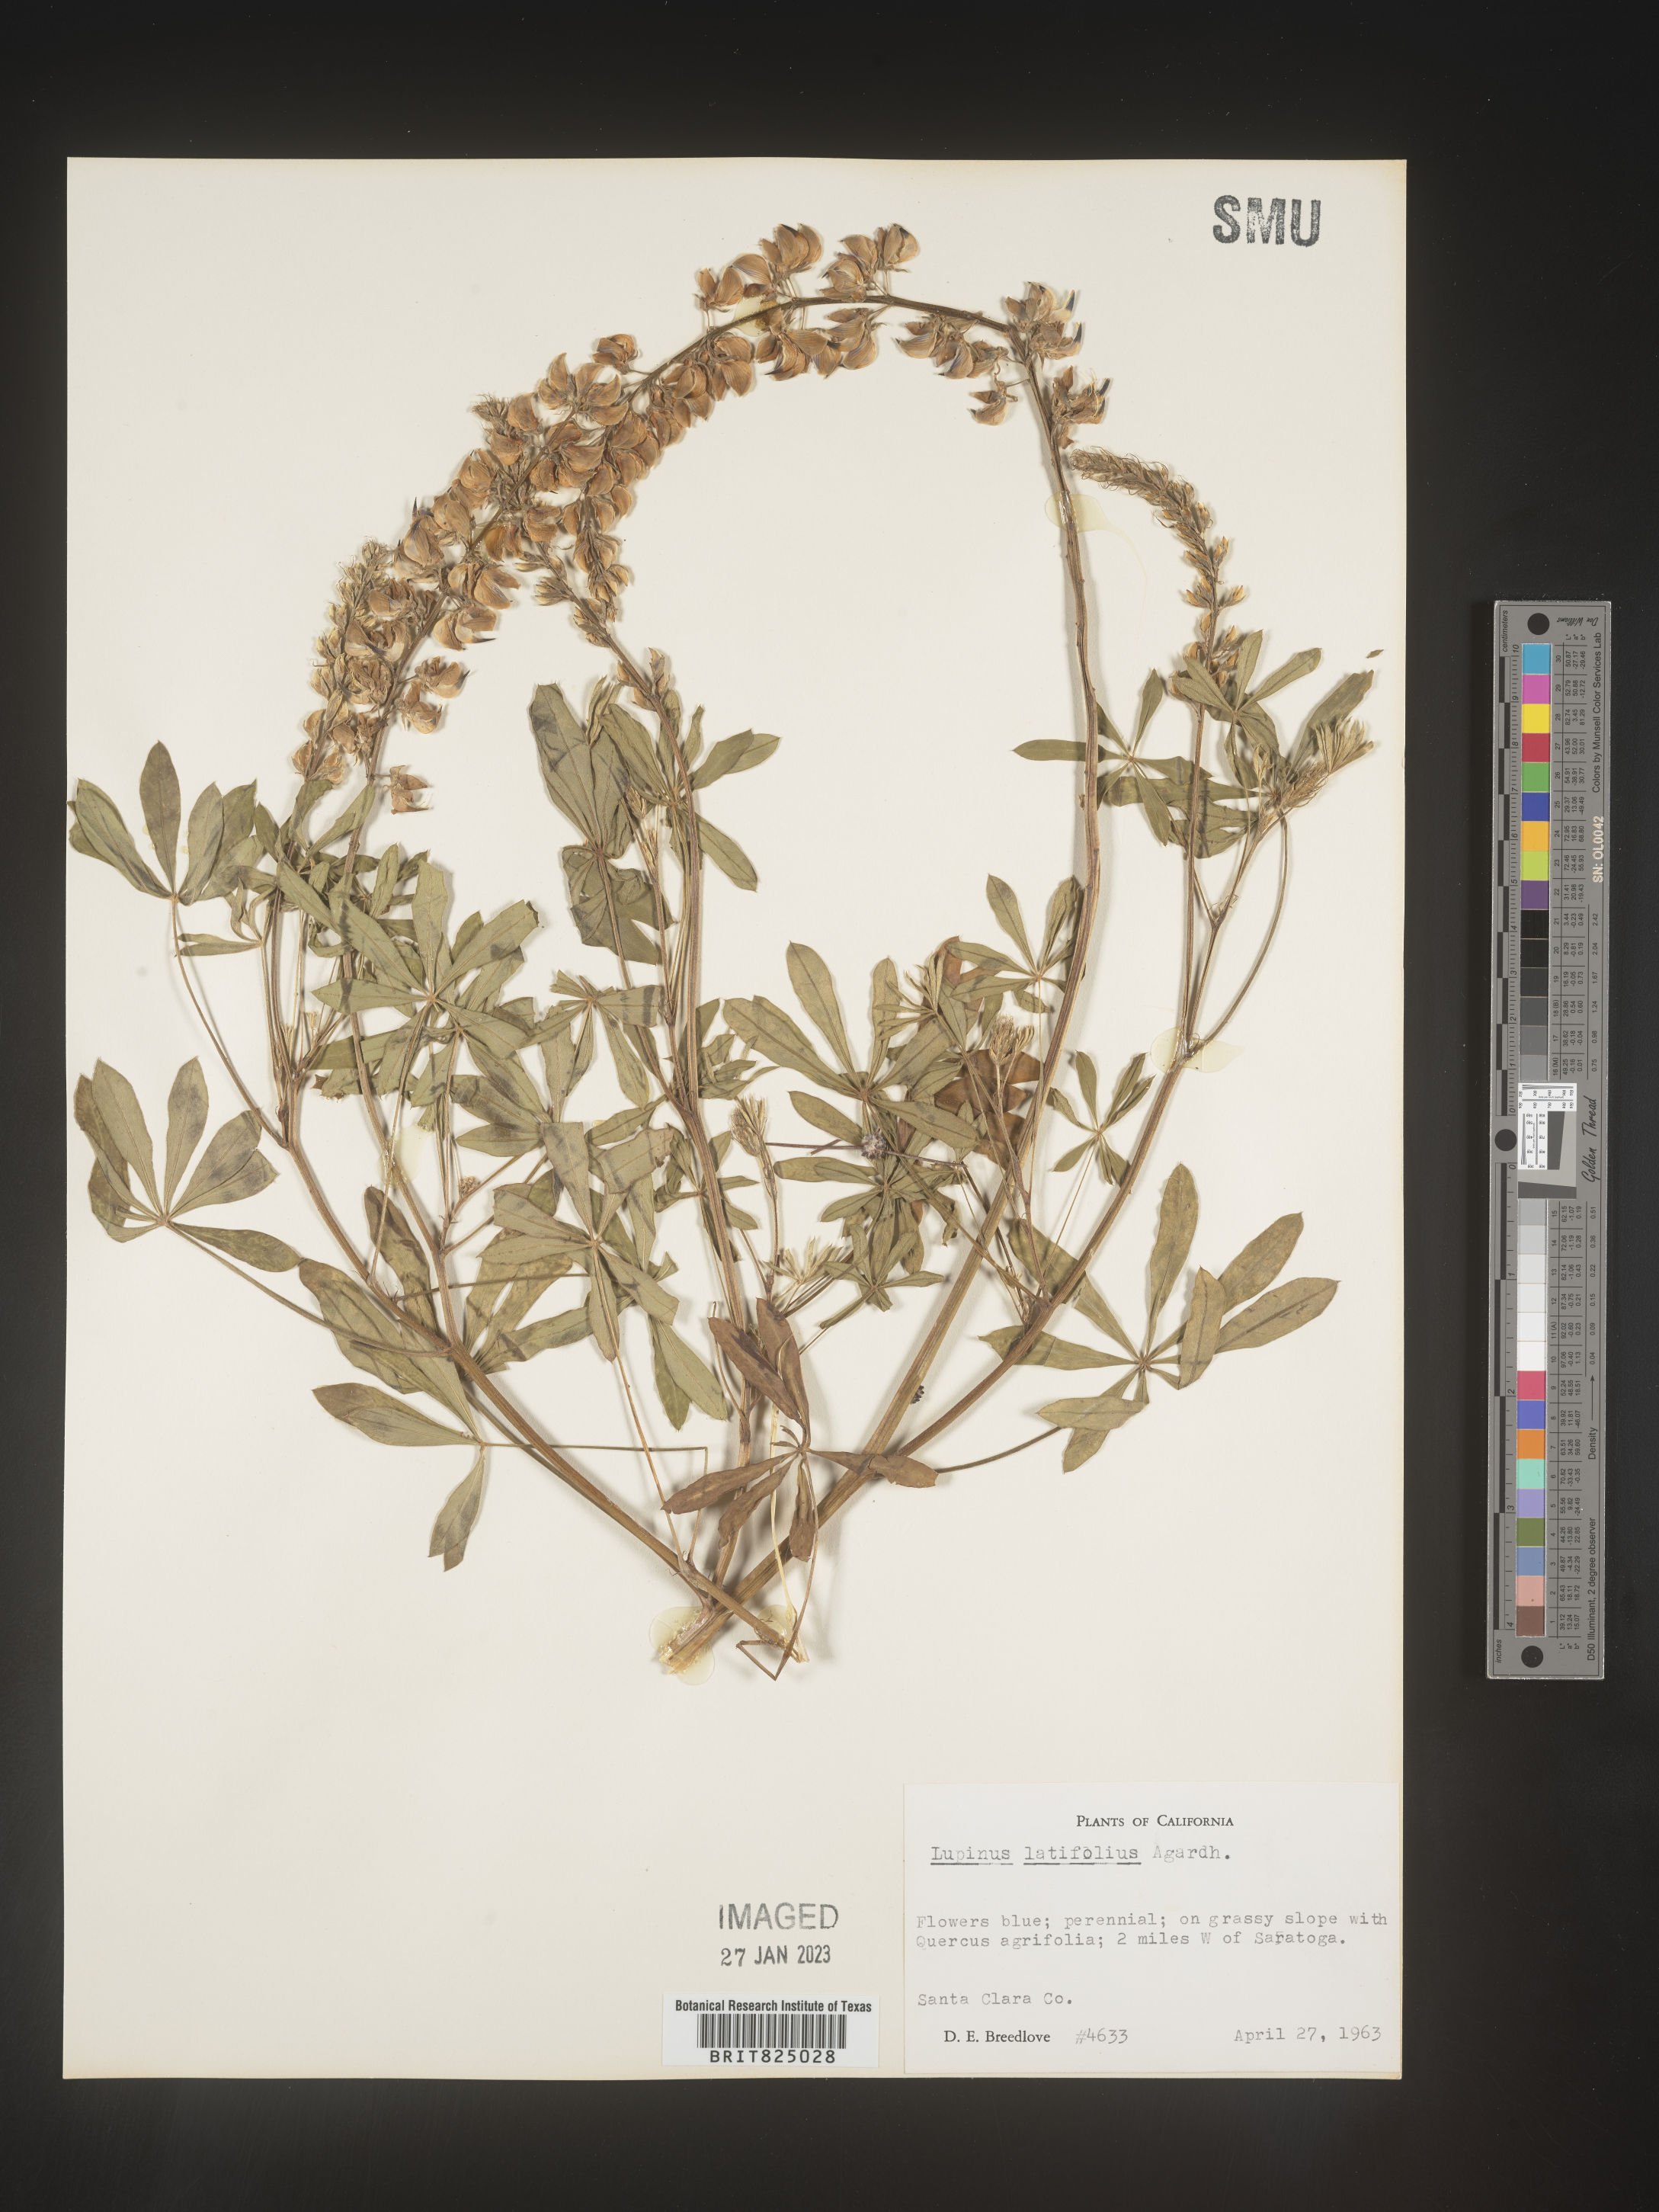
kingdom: Plantae
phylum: Tracheophyta
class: Magnoliopsida
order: Fabales
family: Fabaceae
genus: Lupinus
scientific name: Lupinus
